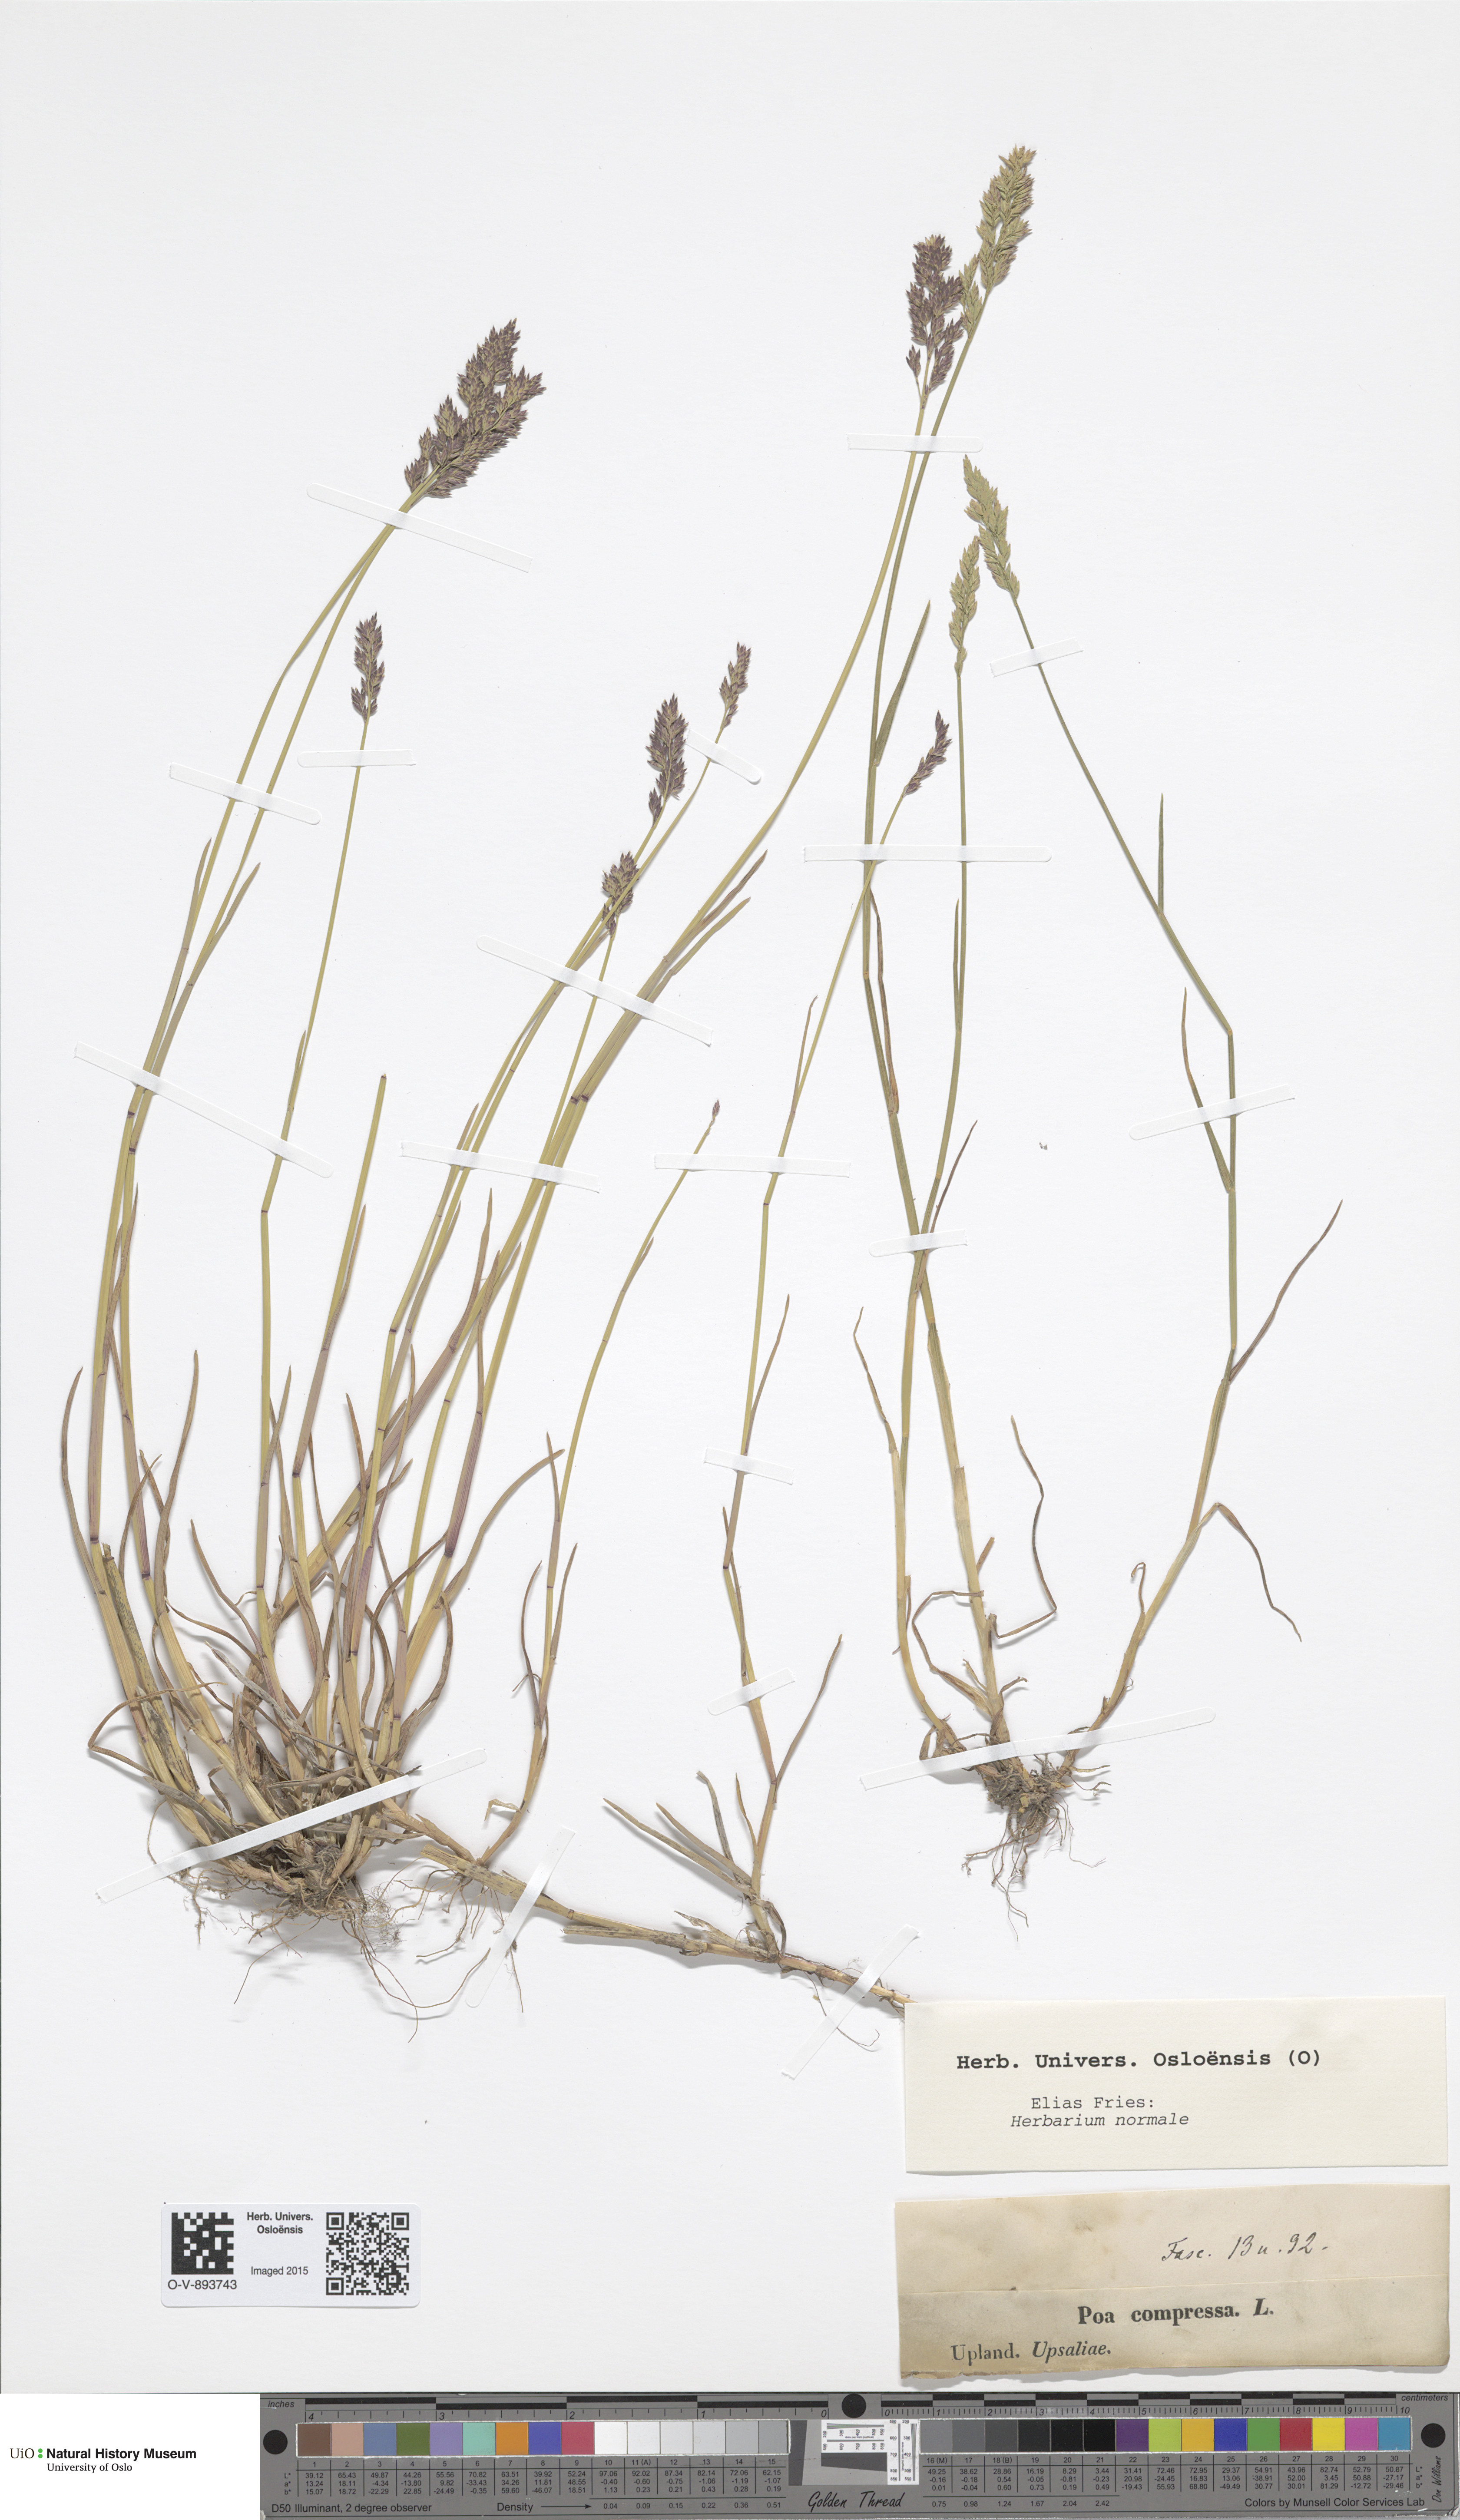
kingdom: Plantae
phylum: Tracheophyta
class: Liliopsida
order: Poales
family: Poaceae
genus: Poa
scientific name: Poa compressa
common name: Canada bluegrass
